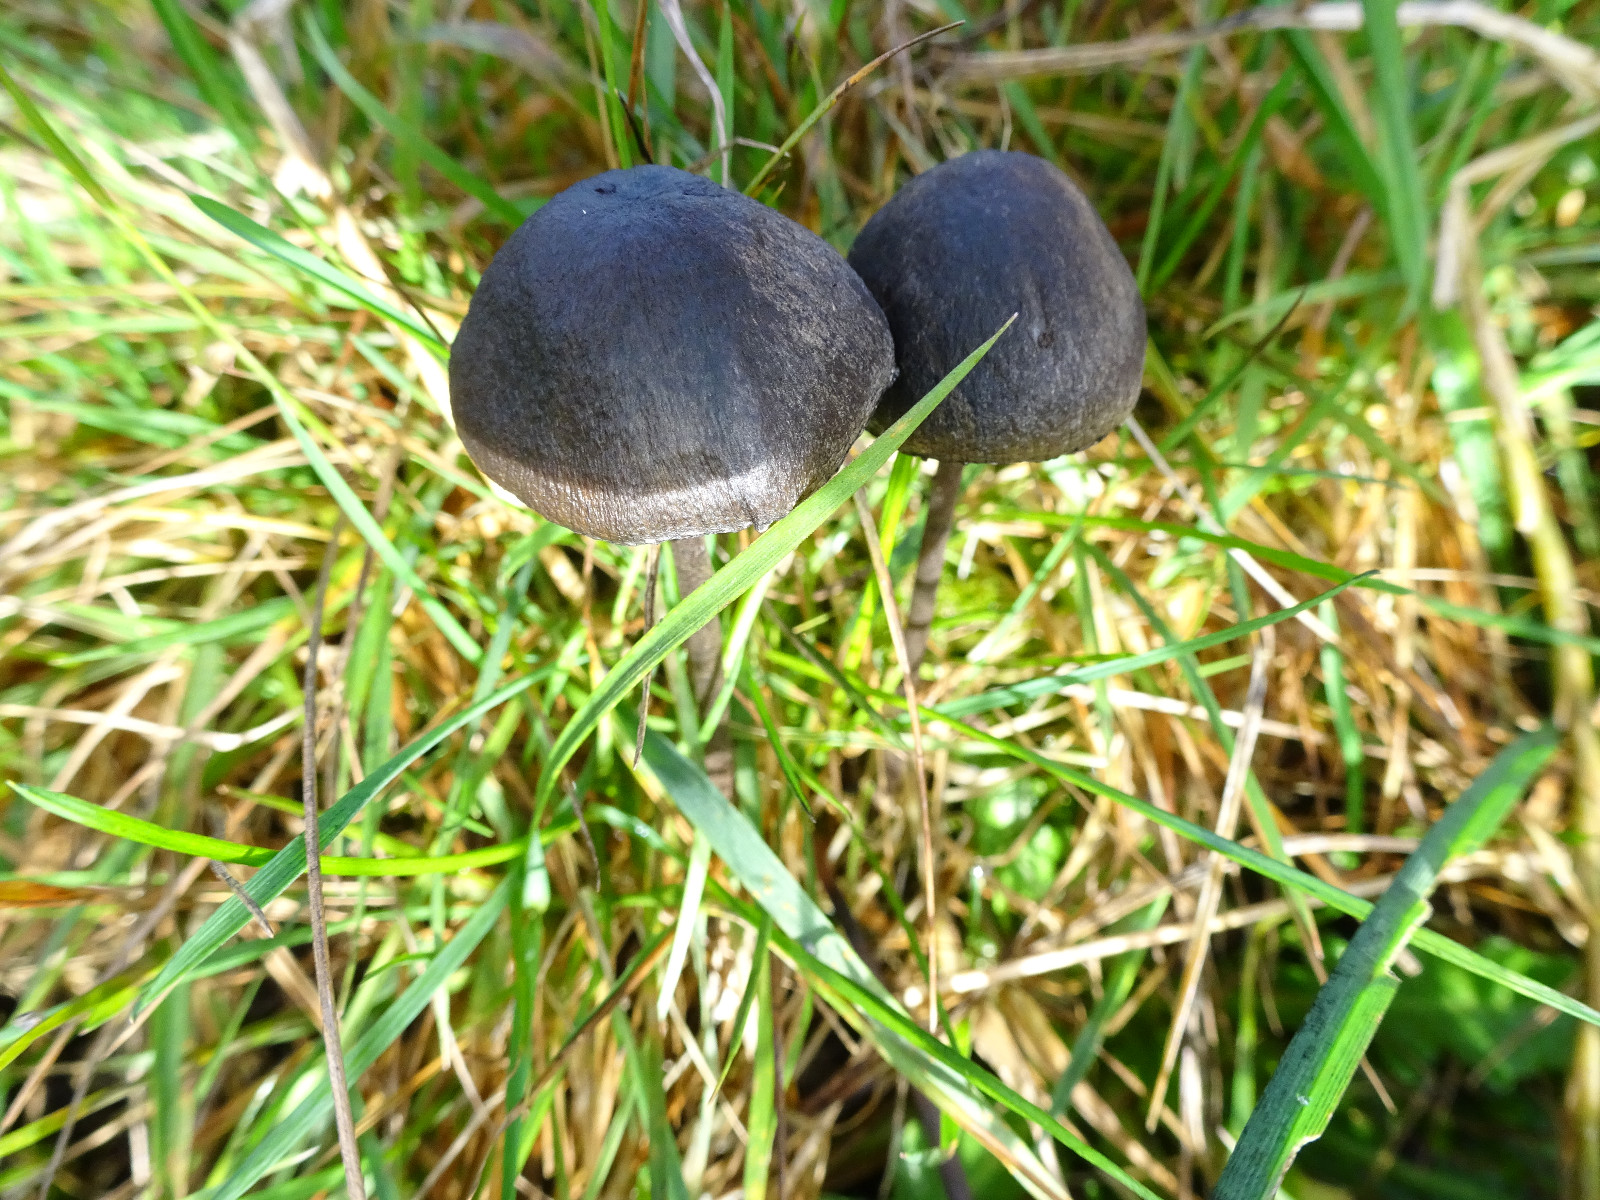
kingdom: Fungi
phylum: Basidiomycota
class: Agaricomycetes
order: Agaricales
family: Bolbitiaceae
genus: Panaeolus
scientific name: Panaeolus
